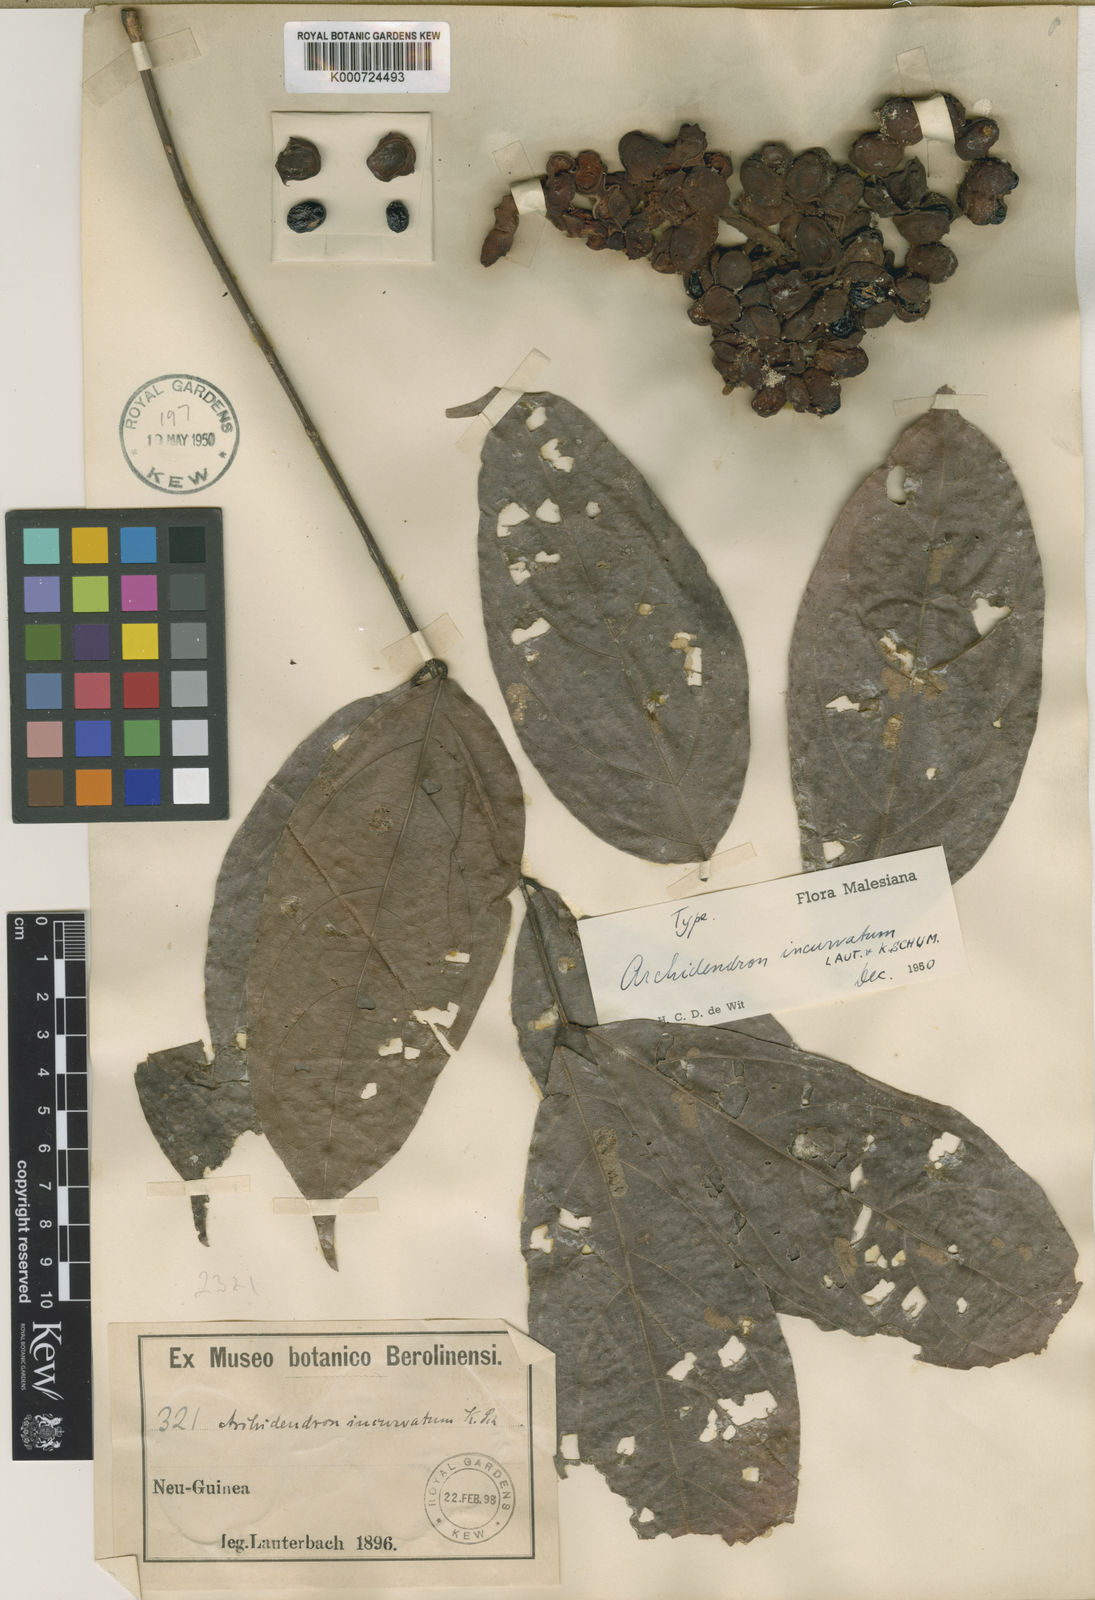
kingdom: Plantae
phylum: Tracheophyta
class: Magnoliopsida
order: Fabales
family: Fabaceae
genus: Archidendron
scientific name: Archidendron aruense
